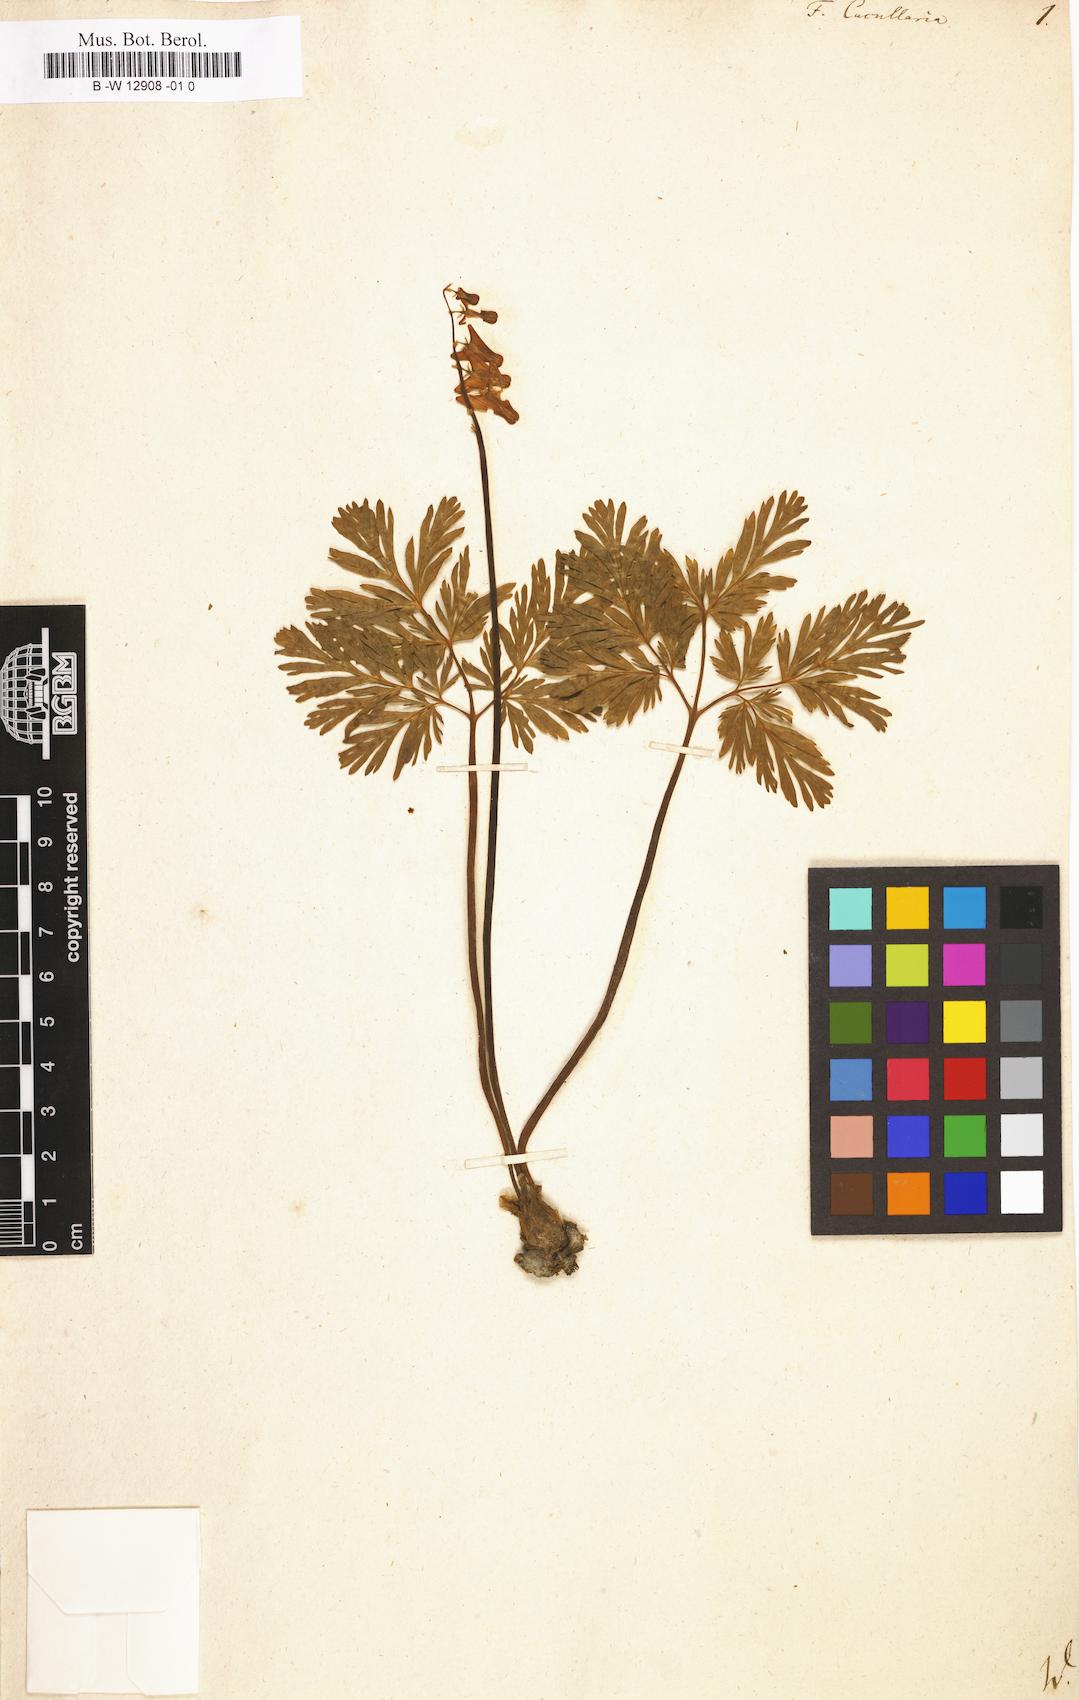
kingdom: Plantae
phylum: Tracheophyta
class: Magnoliopsida
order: Sapindales
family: Rutaceae
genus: Ertela
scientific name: Ertela trifolia
